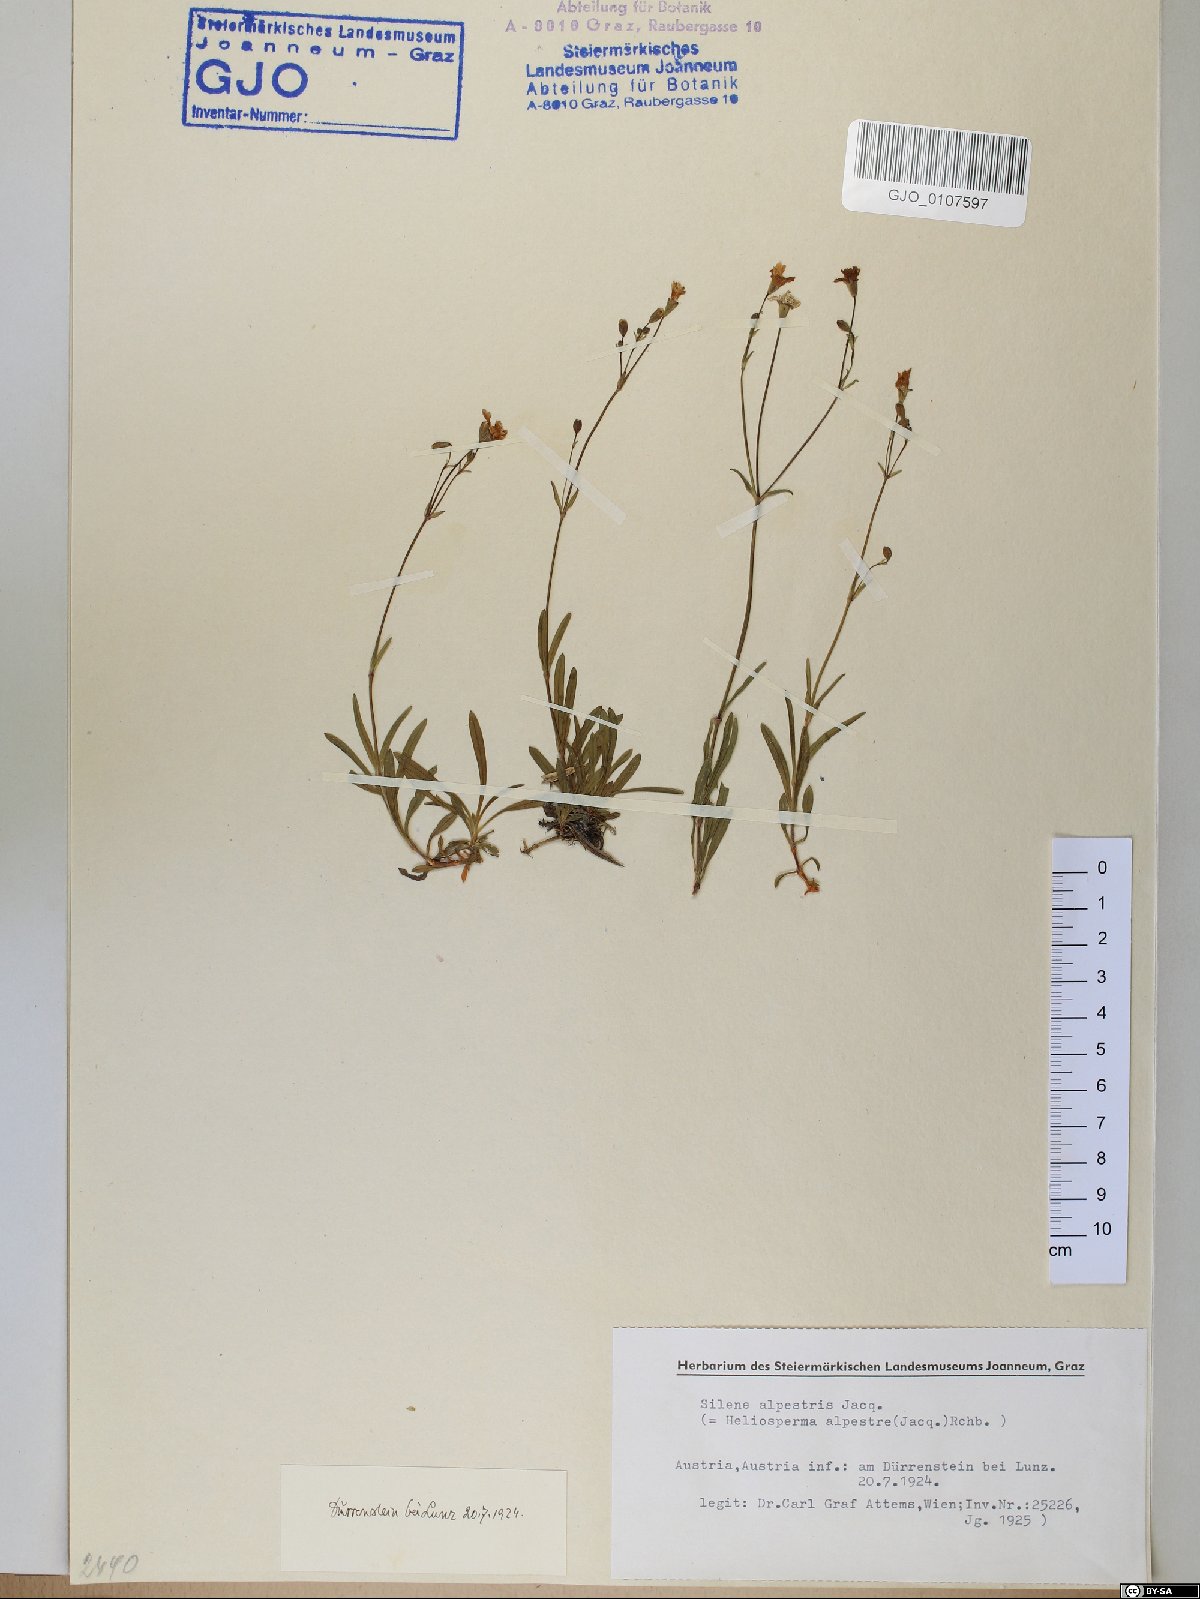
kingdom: Plantae
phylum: Tracheophyta
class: Magnoliopsida
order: Caryophyllales
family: Caryophyllaceae
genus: Heliosperma
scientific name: Heliosperma alpestre
